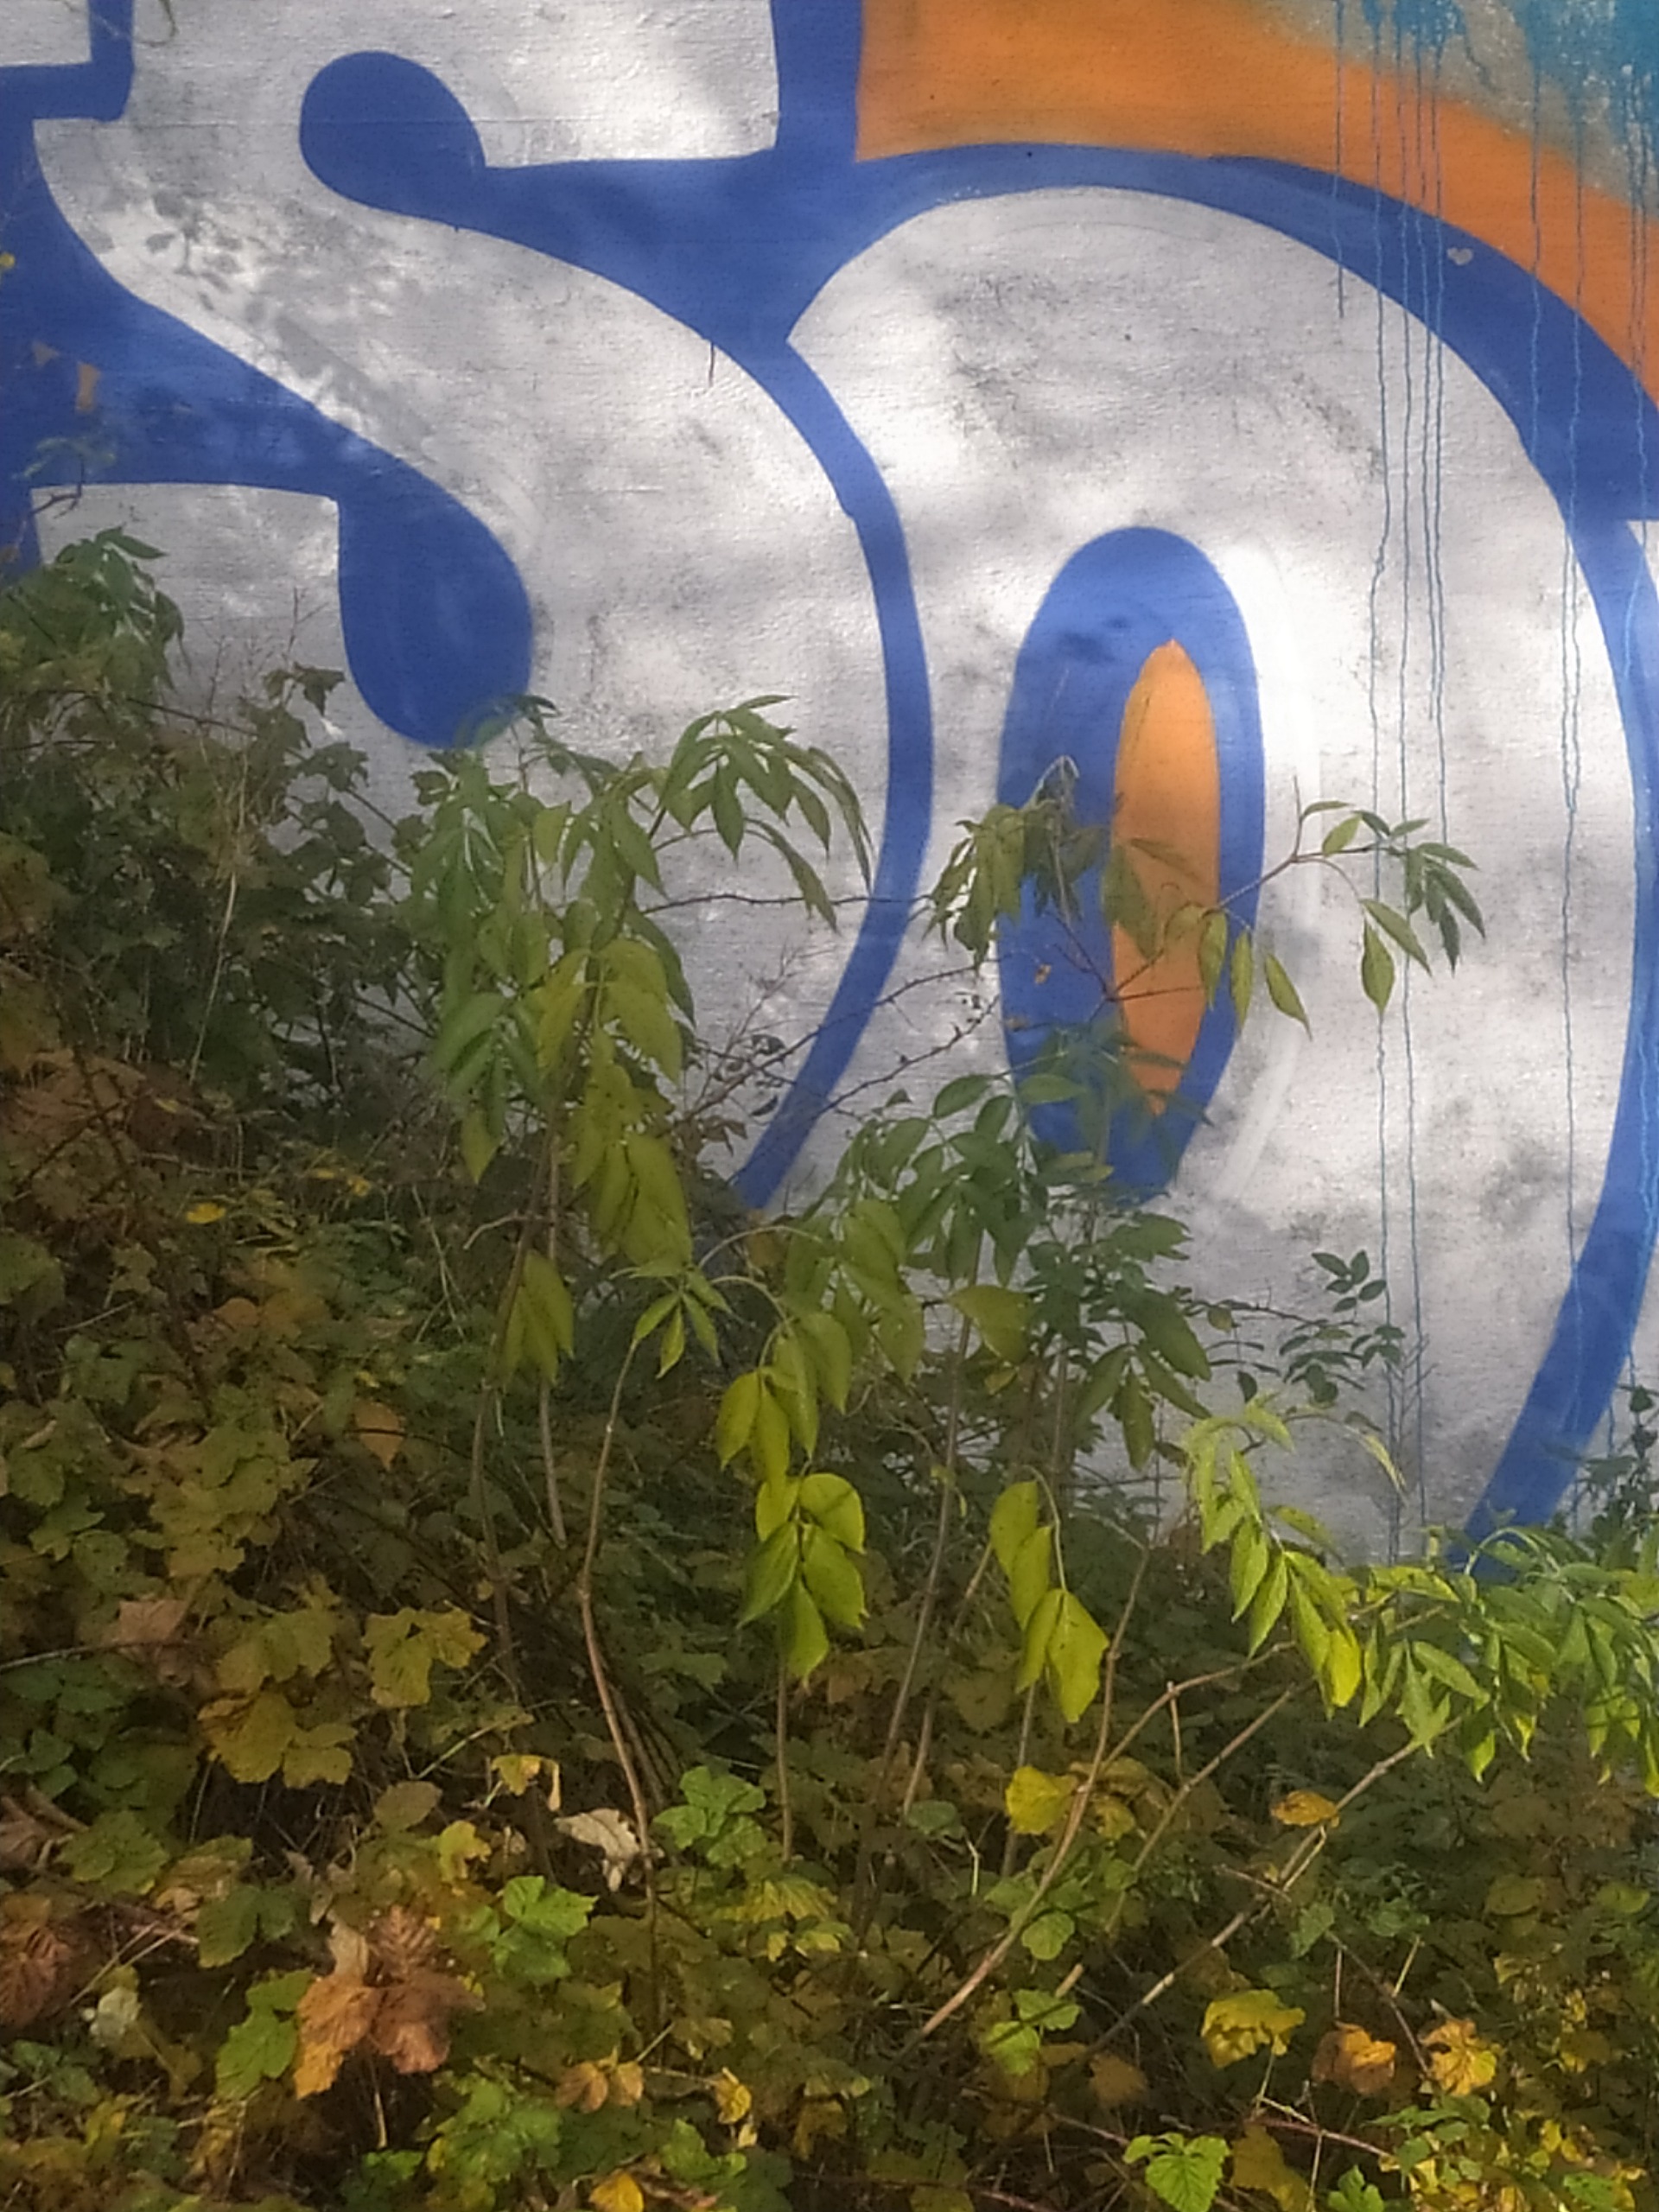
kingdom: Plantae
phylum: Tracheophyta
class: Magnoliopsida
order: Dipsacales
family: Viburnaceae
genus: Sambucus
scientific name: Sambucus nigra
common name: Almindelig hyld
